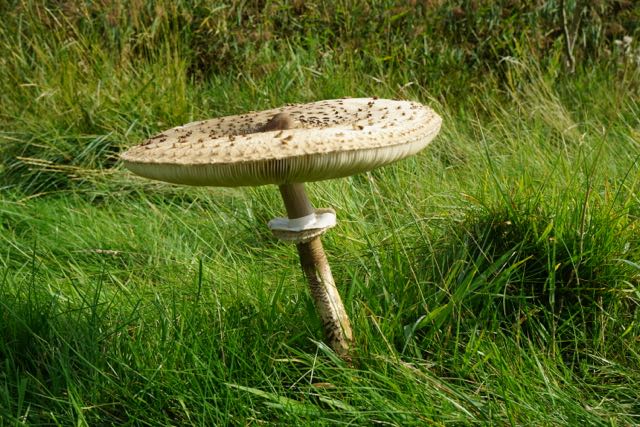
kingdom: Fungi
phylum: Basidiomycota
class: Agaricomycetes
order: Agaricales
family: Agaricaceae
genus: Macrolepiota
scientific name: Macrolepiota procera
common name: stor kæmpeparasolhat
